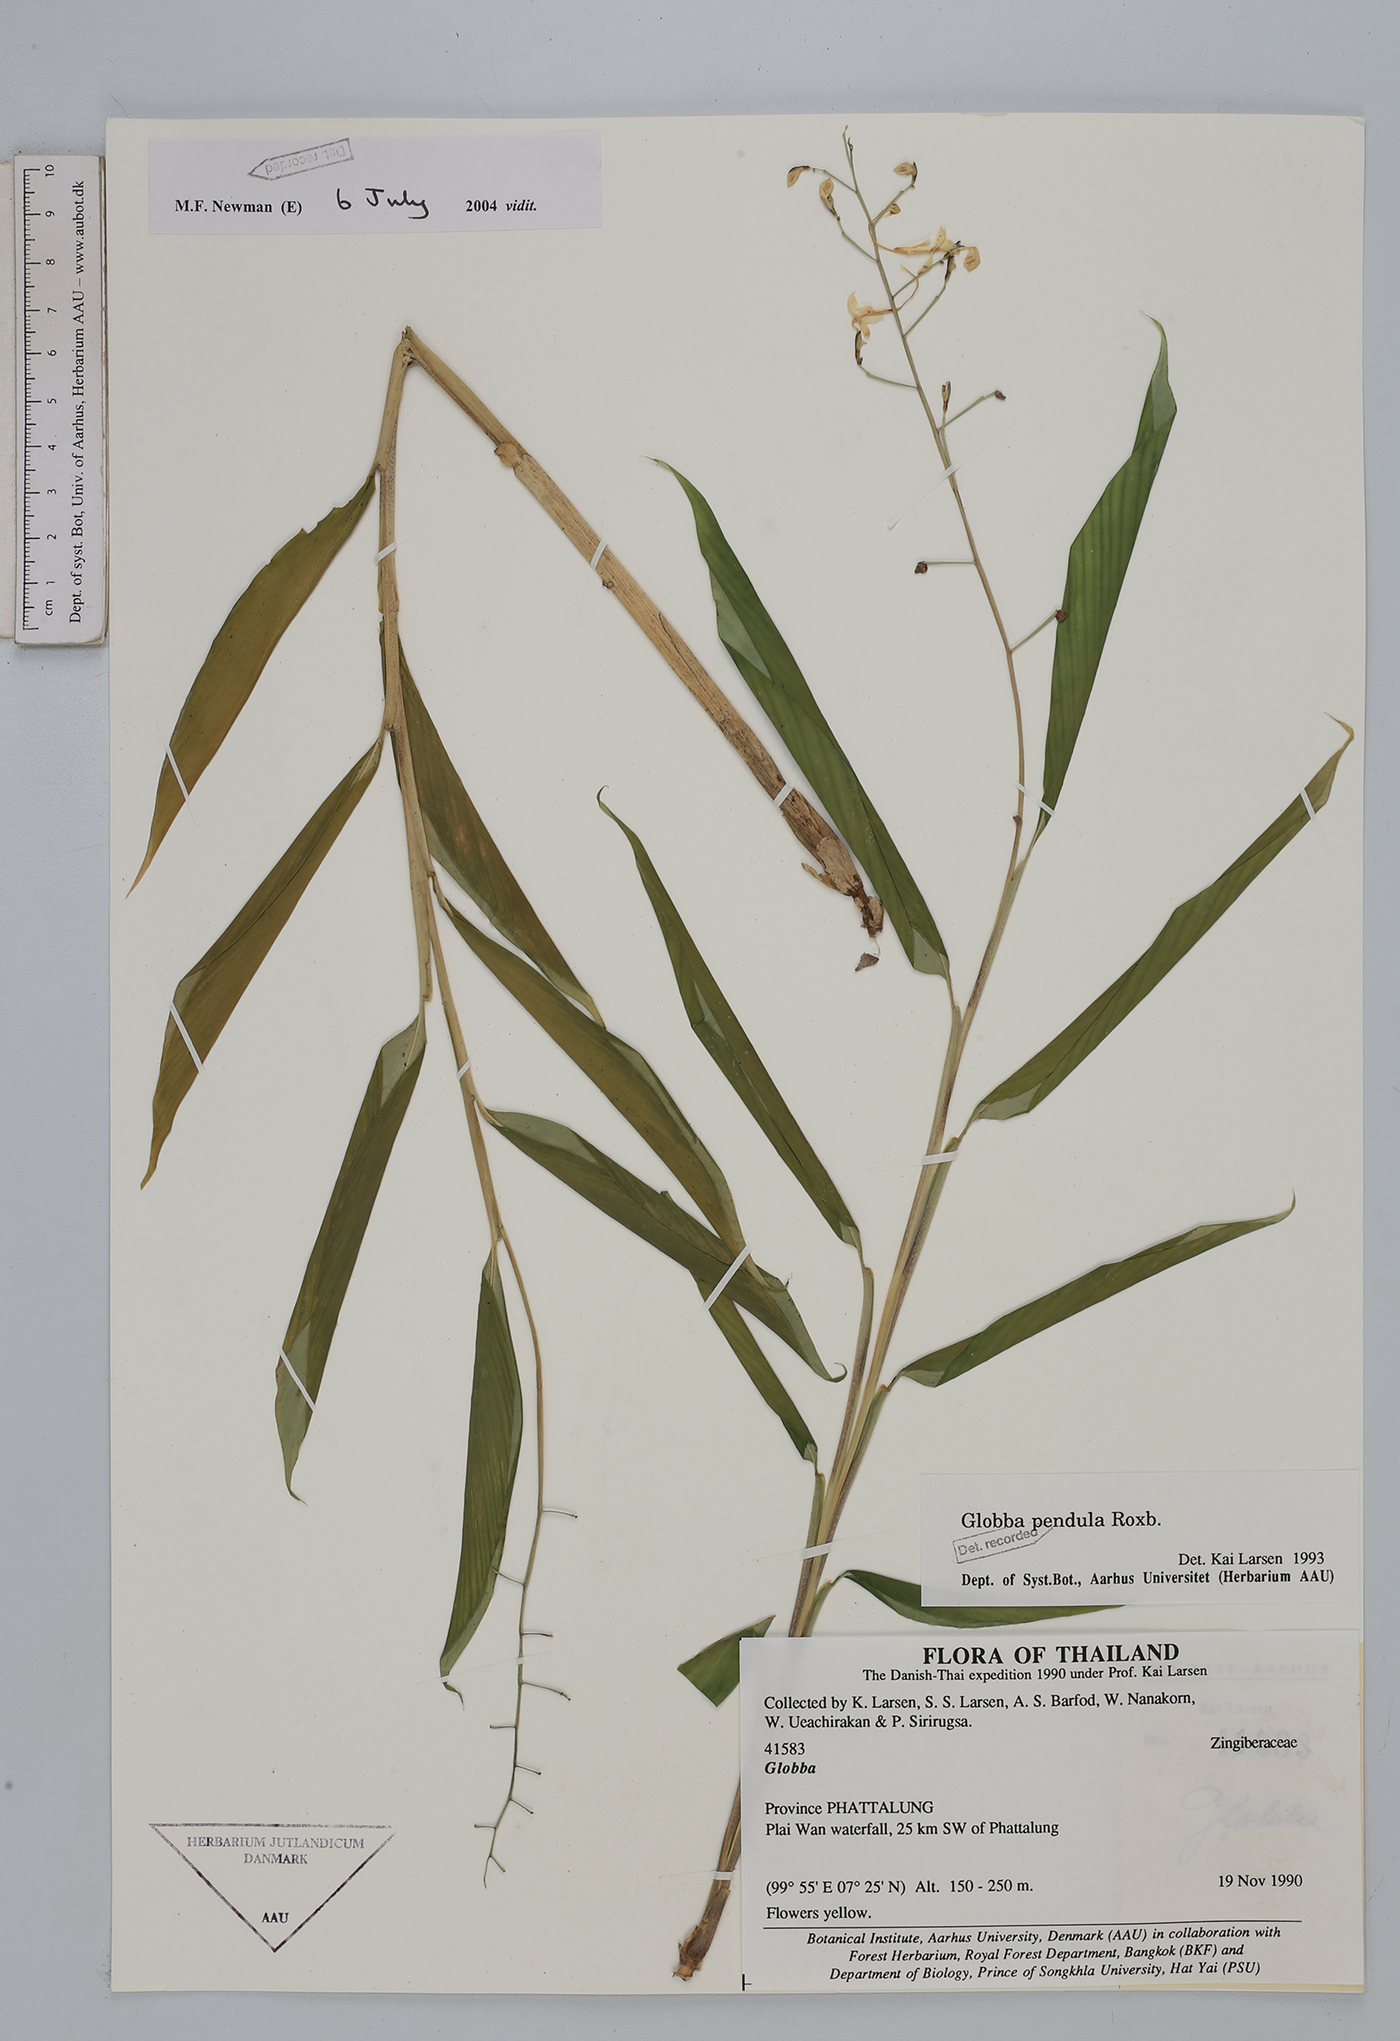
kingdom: Plantae
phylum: Tracheophyta
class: Liliopsida
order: Zingiberales
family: Zingiberaceae
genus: Globba
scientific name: Globba pendula
